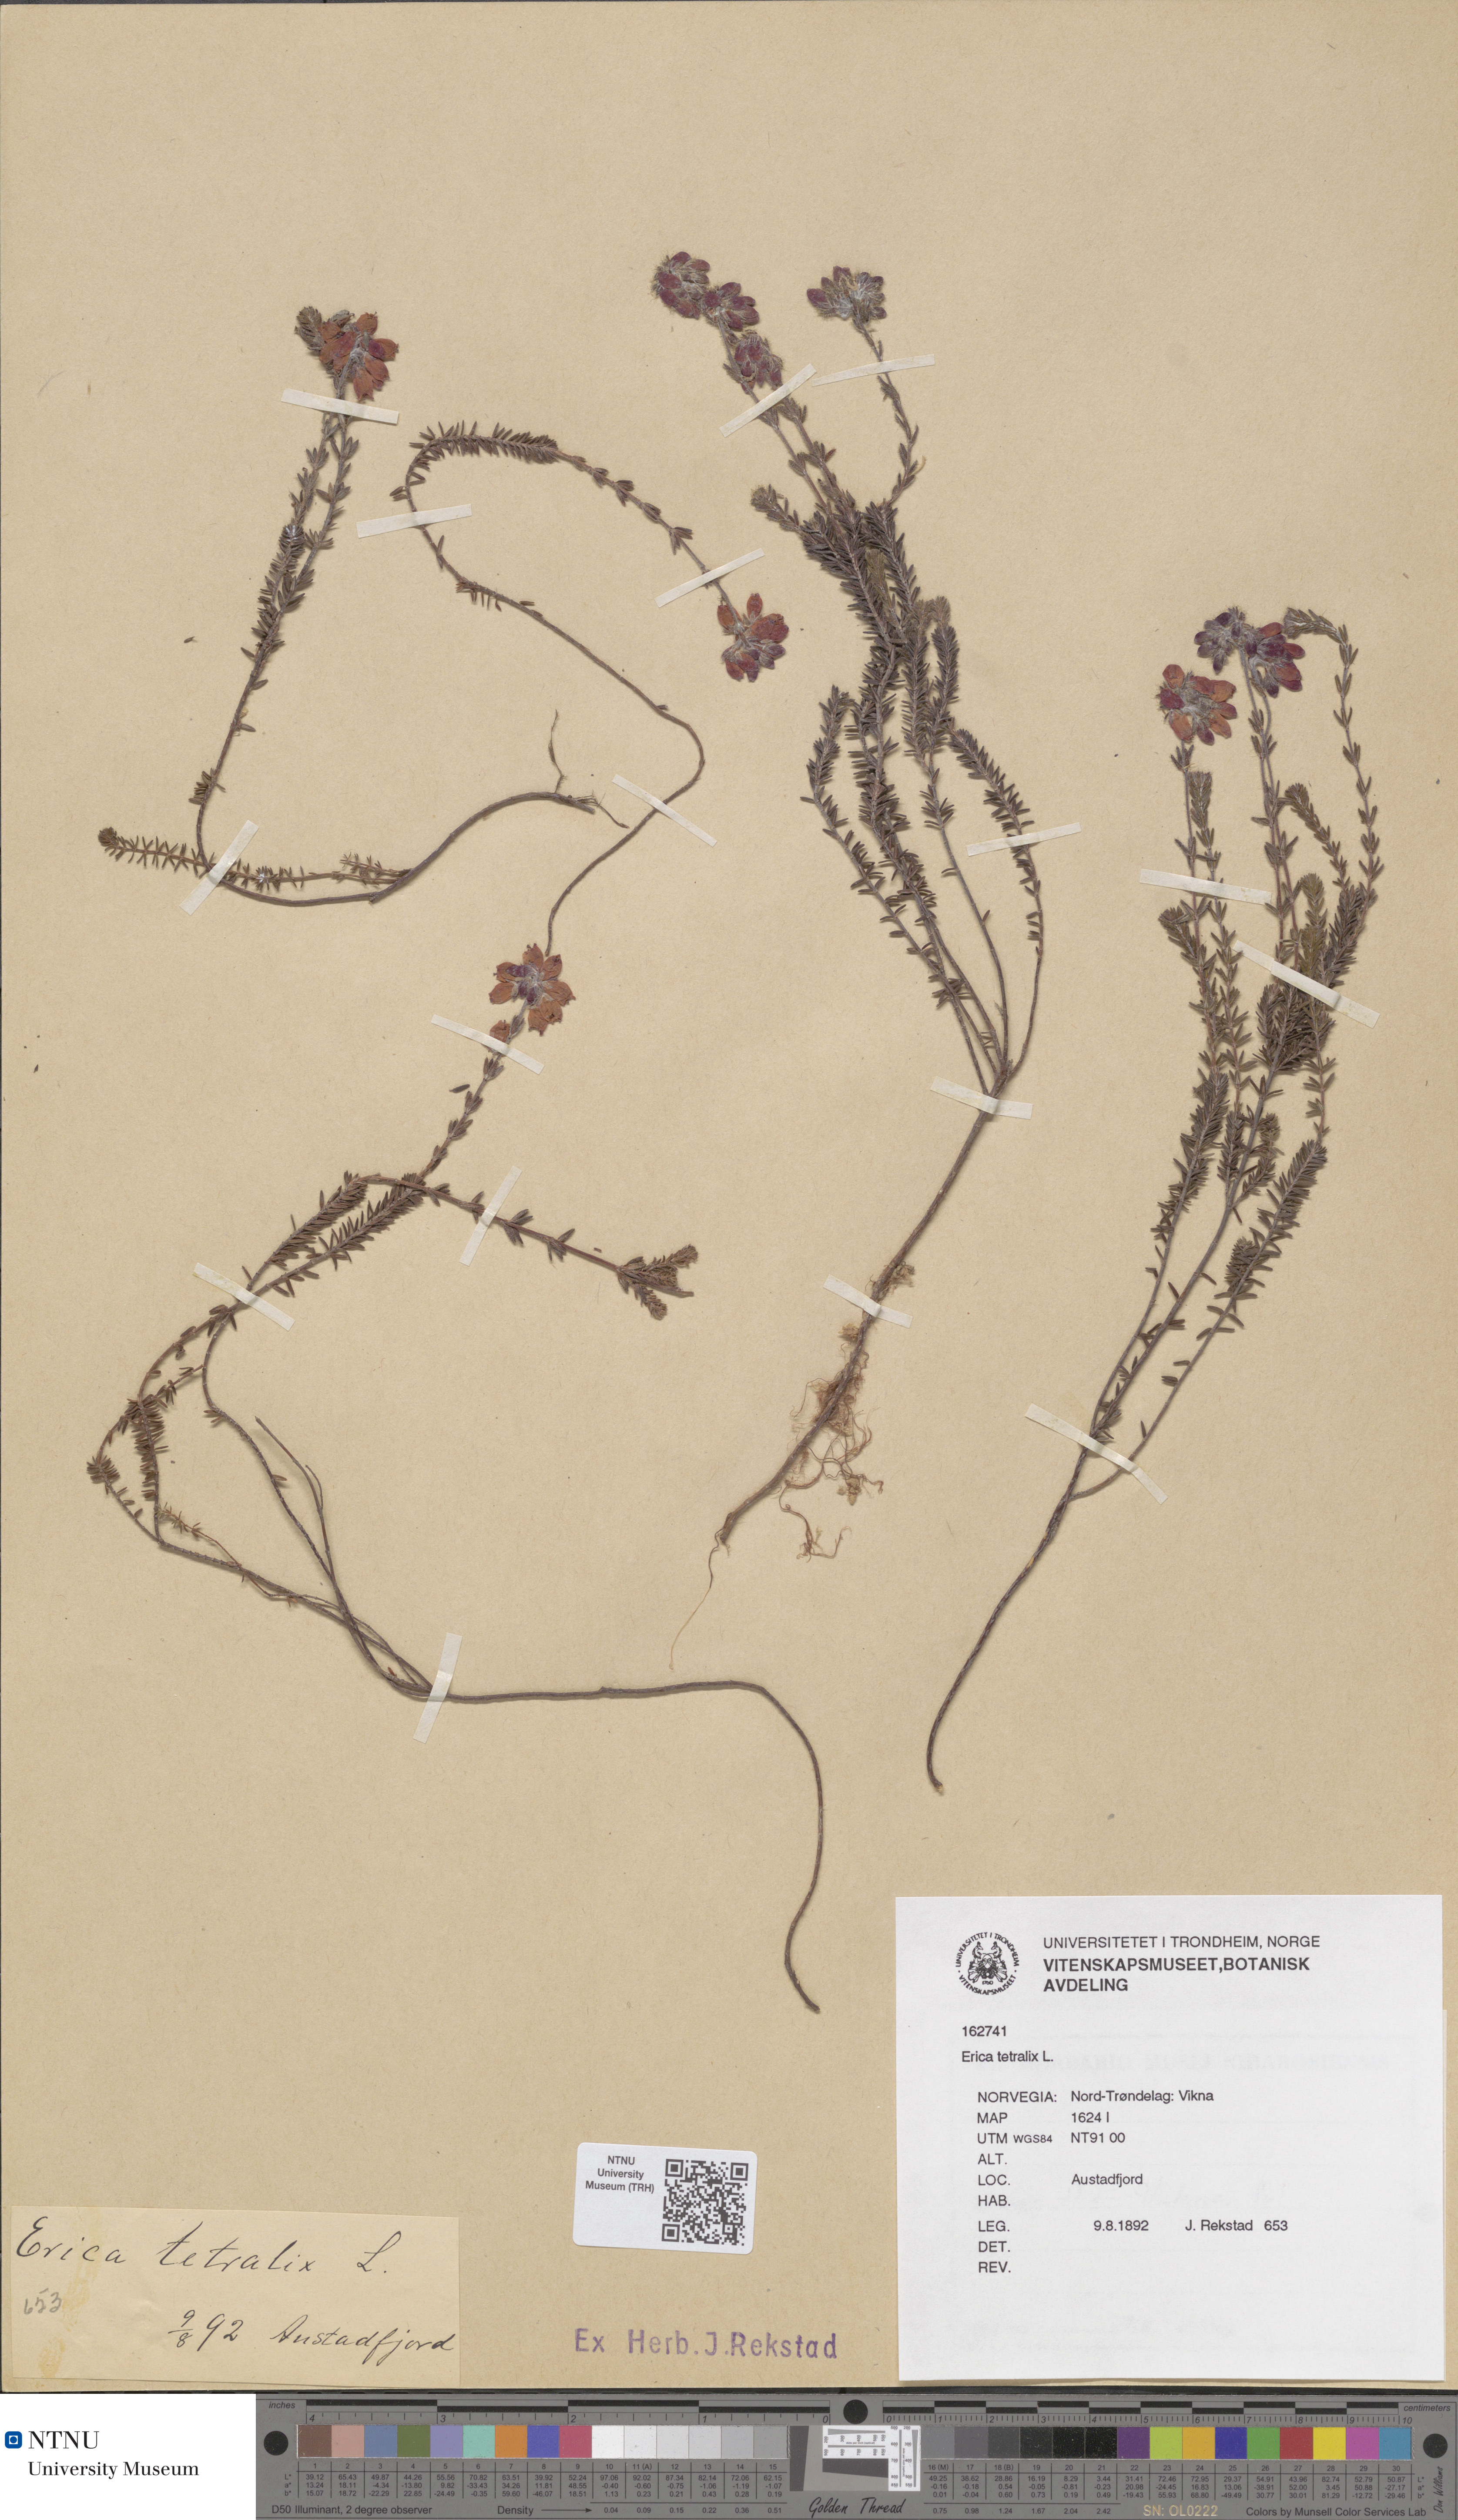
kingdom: Plantae
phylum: Tracheophyta
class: Magnoliopsida
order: Ericales
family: Ericaceae
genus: Erica
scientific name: Erica tetralix
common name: Cross-leaved heath
